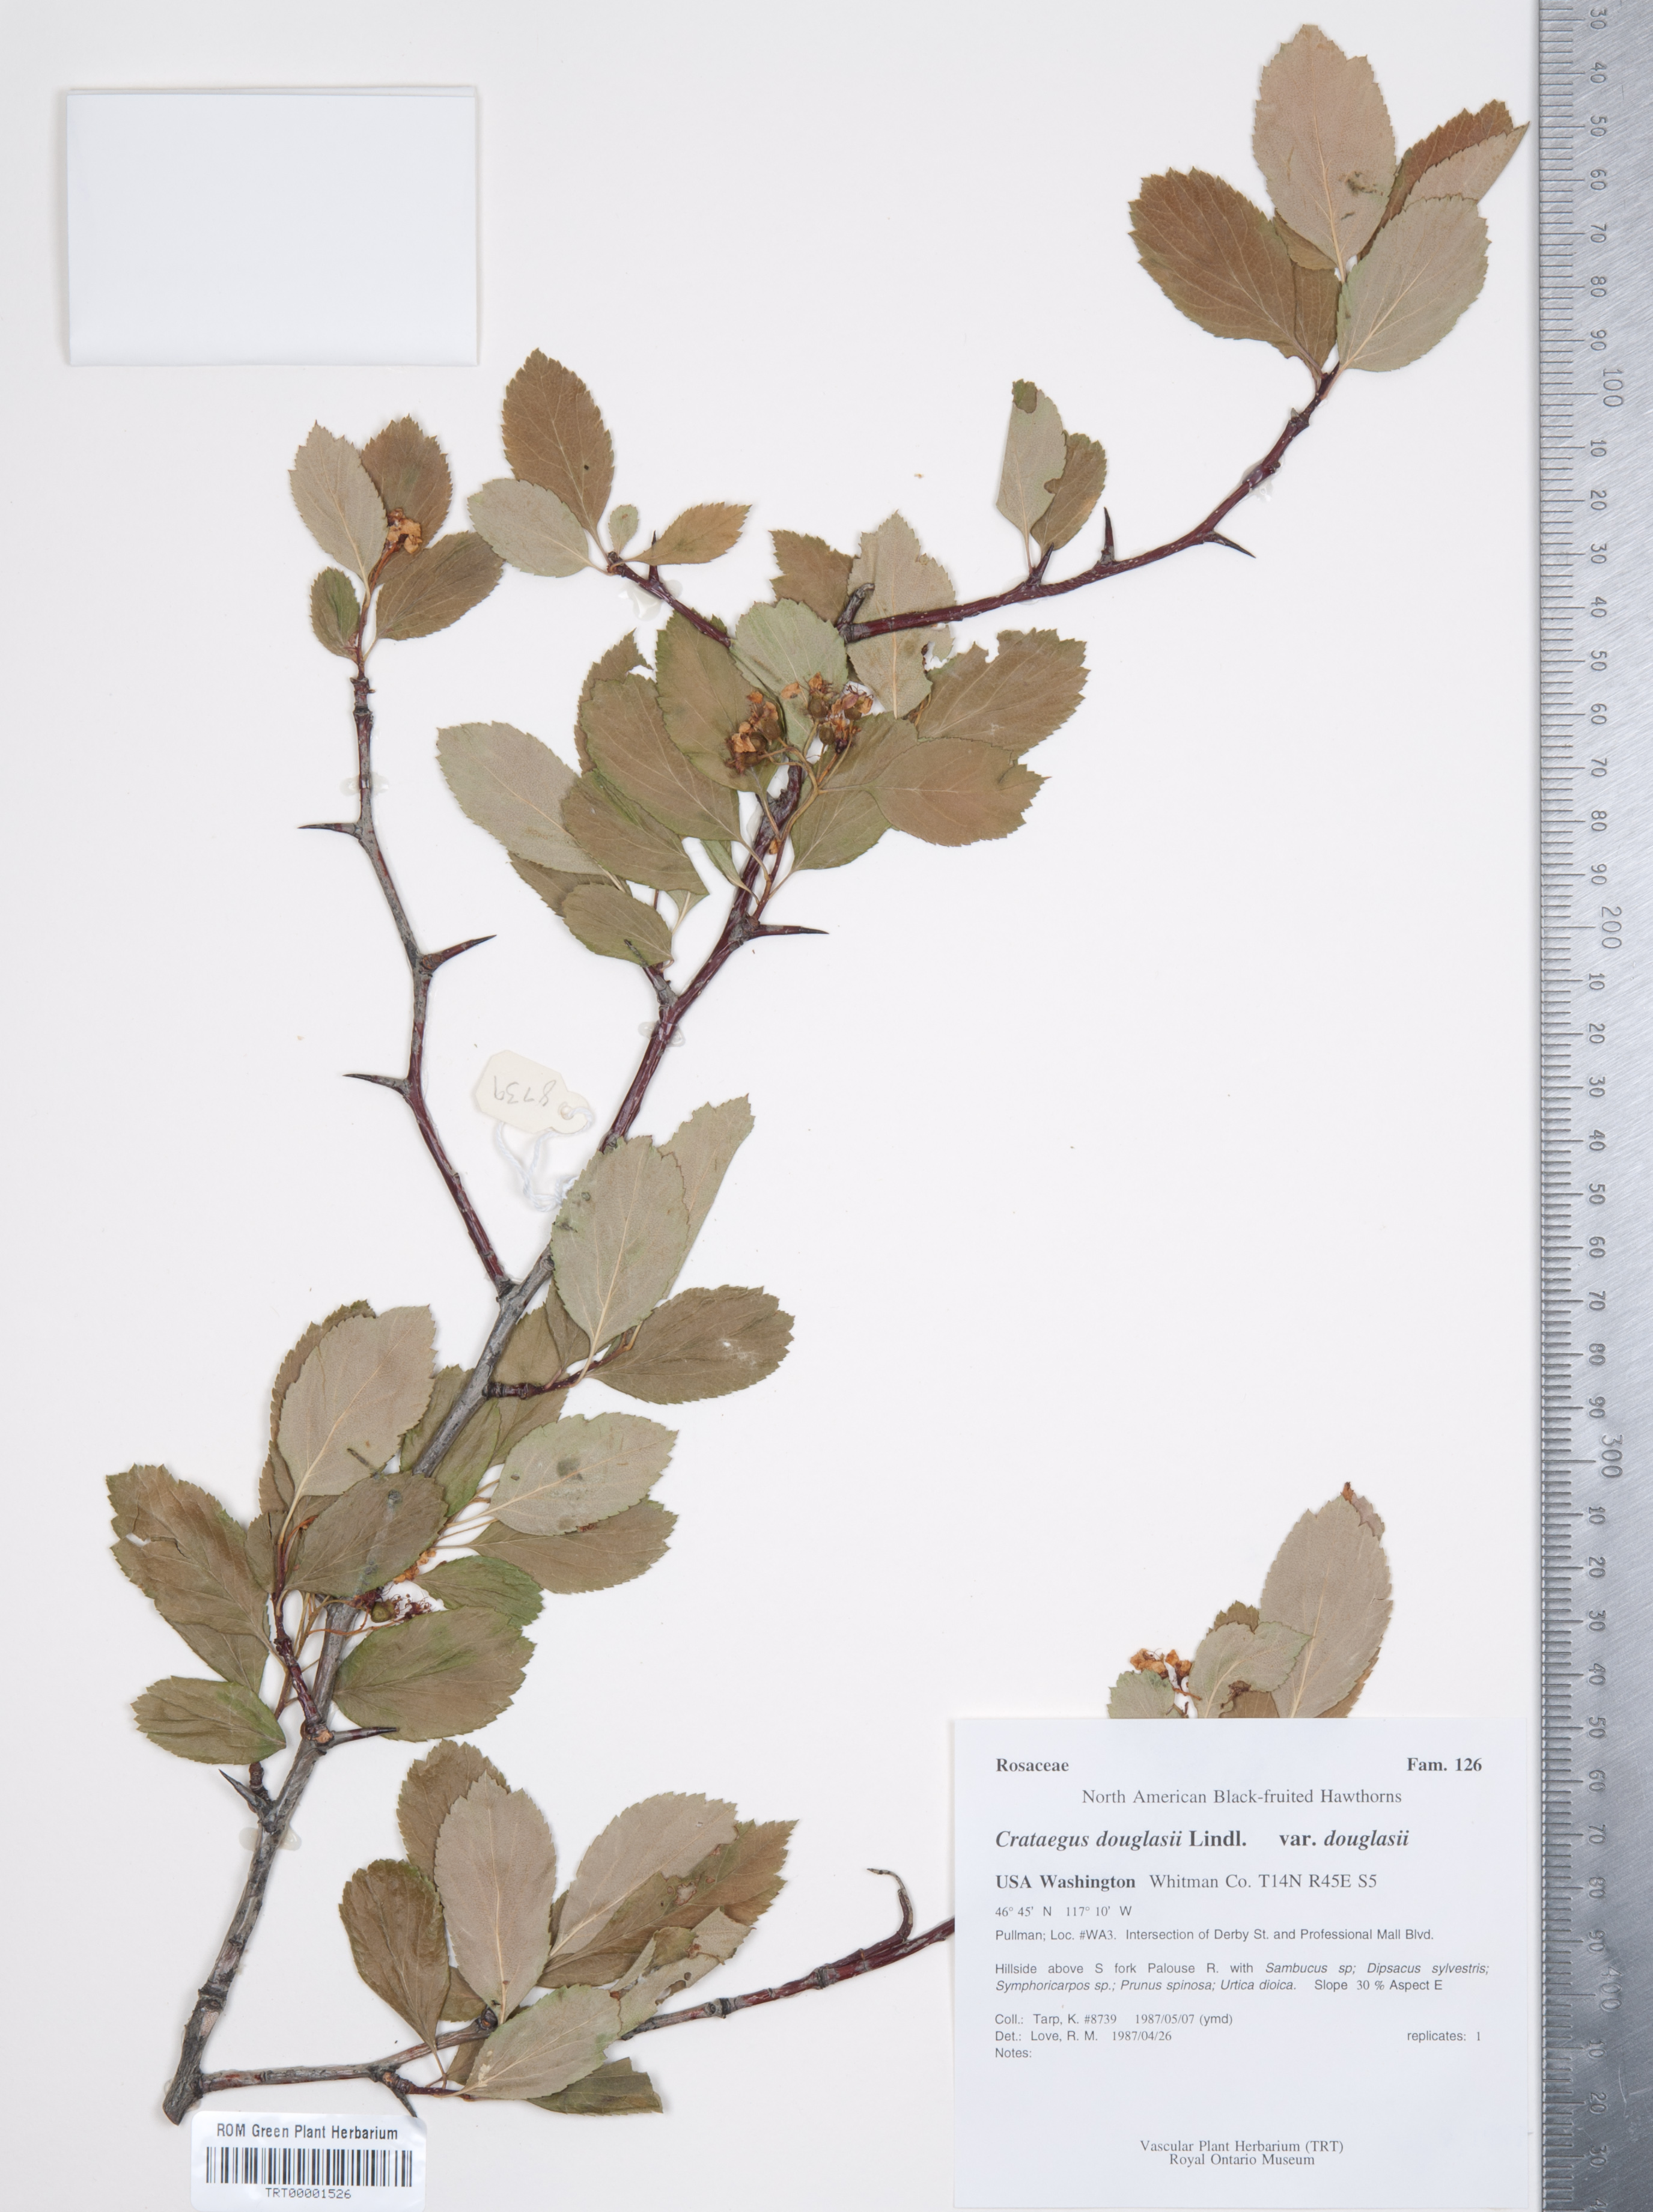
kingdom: Plantae
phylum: Tracheophyta
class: Magnoliopsida
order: Rosales
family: Rosaceae
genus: Crataegus
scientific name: Crataegus douglasii
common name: Black hawthorn
